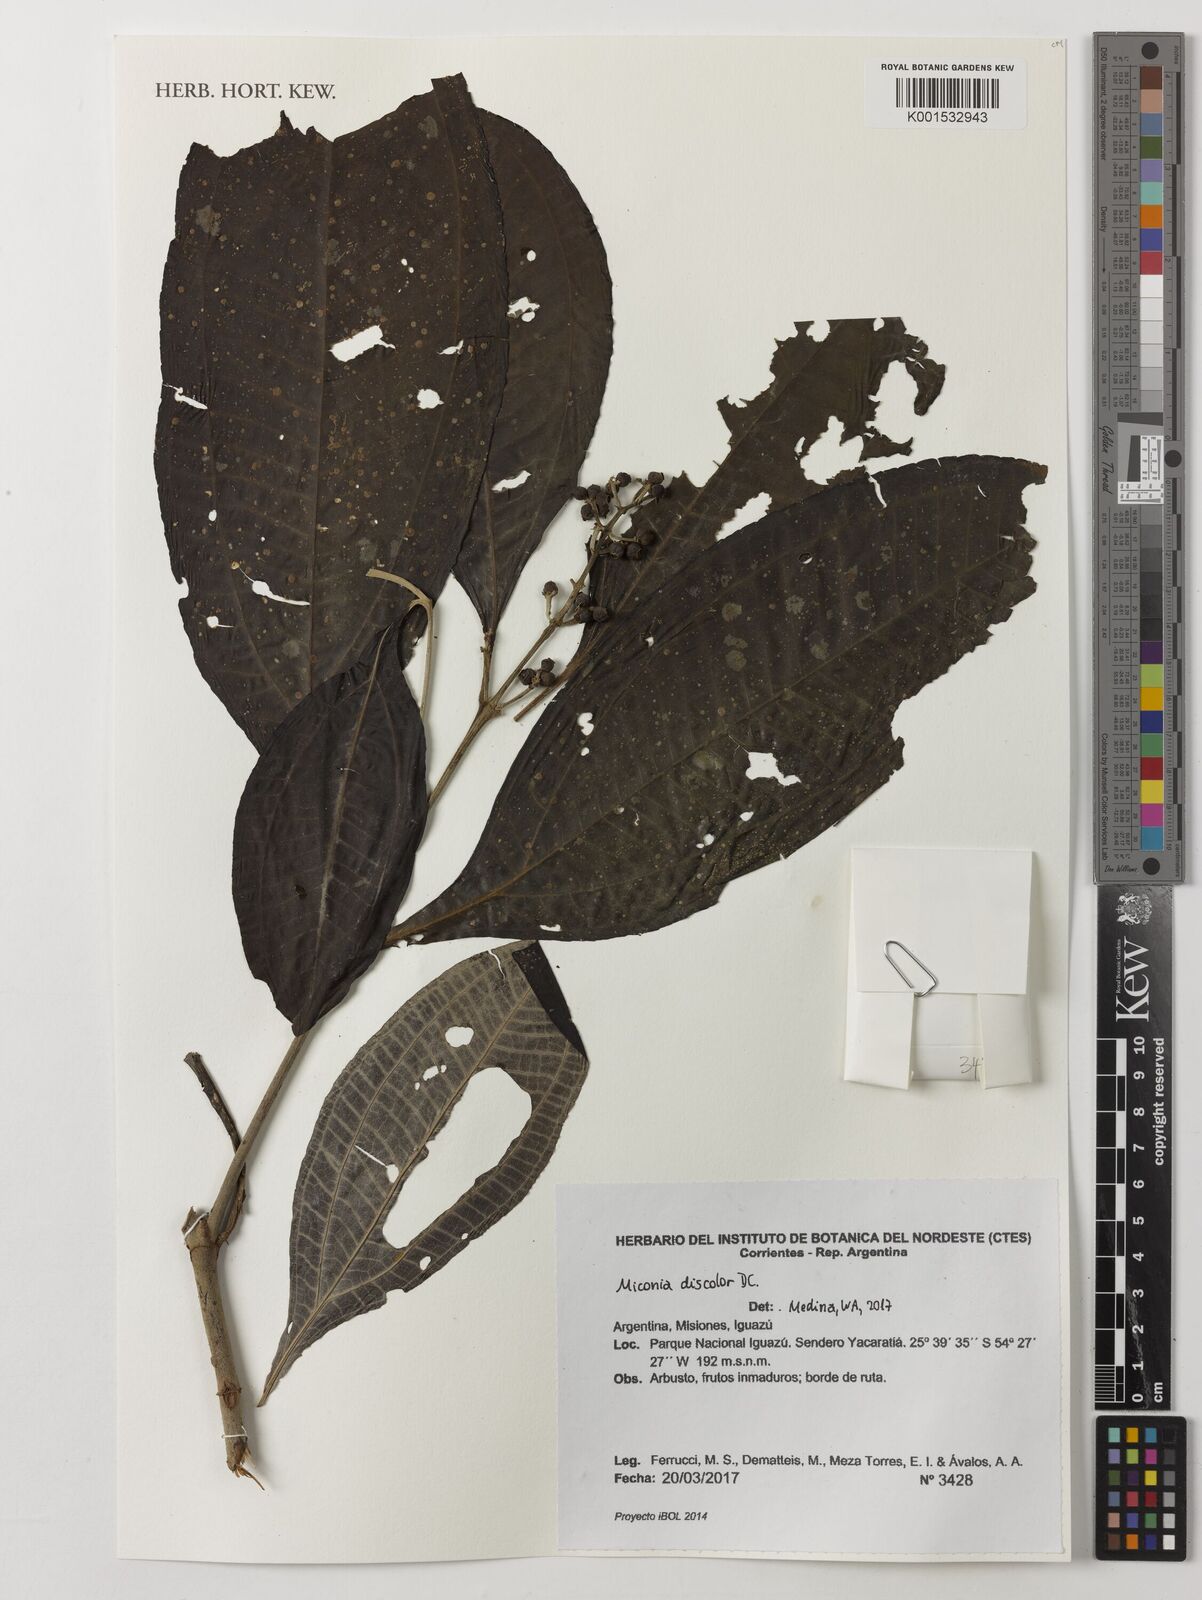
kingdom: Plantae
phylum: Tracheophyta
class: Magnoliopsida
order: Myrtales
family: Melastomataceae
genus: Miconia
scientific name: Miconia discolor
